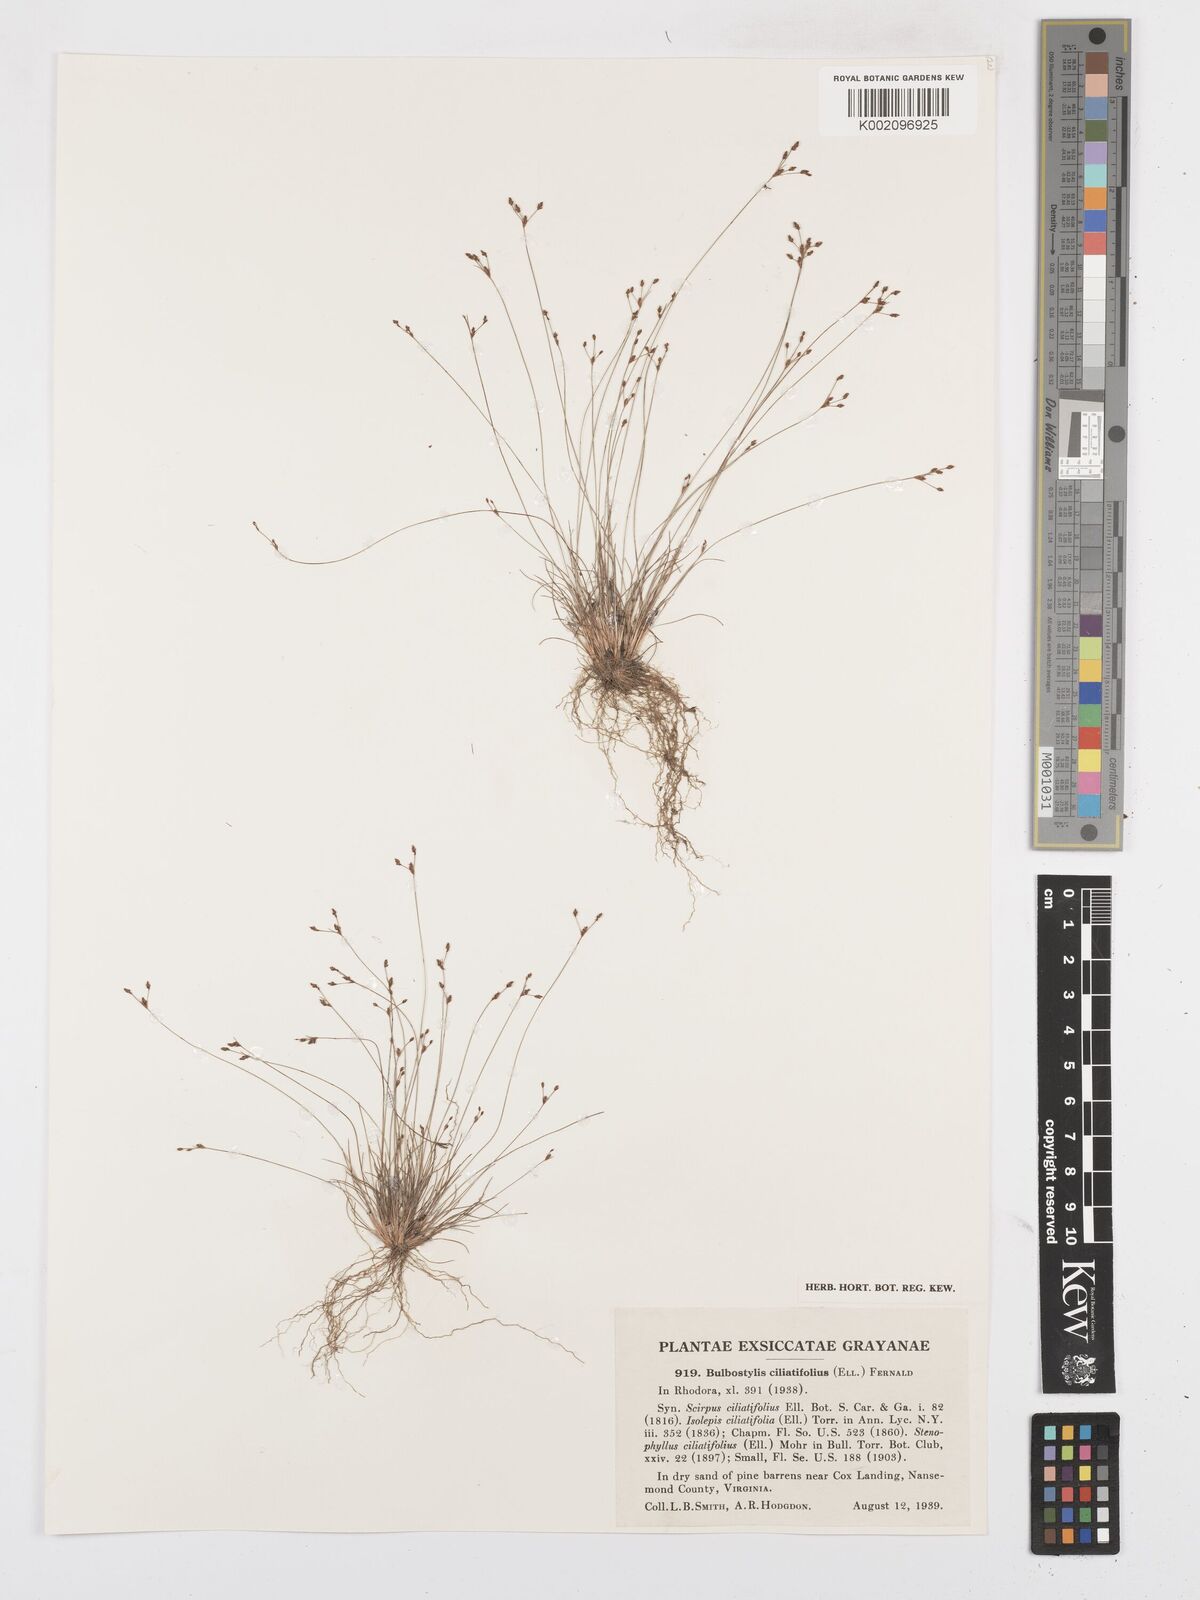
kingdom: Plantae
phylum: Tracheophyta
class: Liliopsida
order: Poales
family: Cyperaceae
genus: Bulbostylis
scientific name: Bulbostylis ciliatifolia
